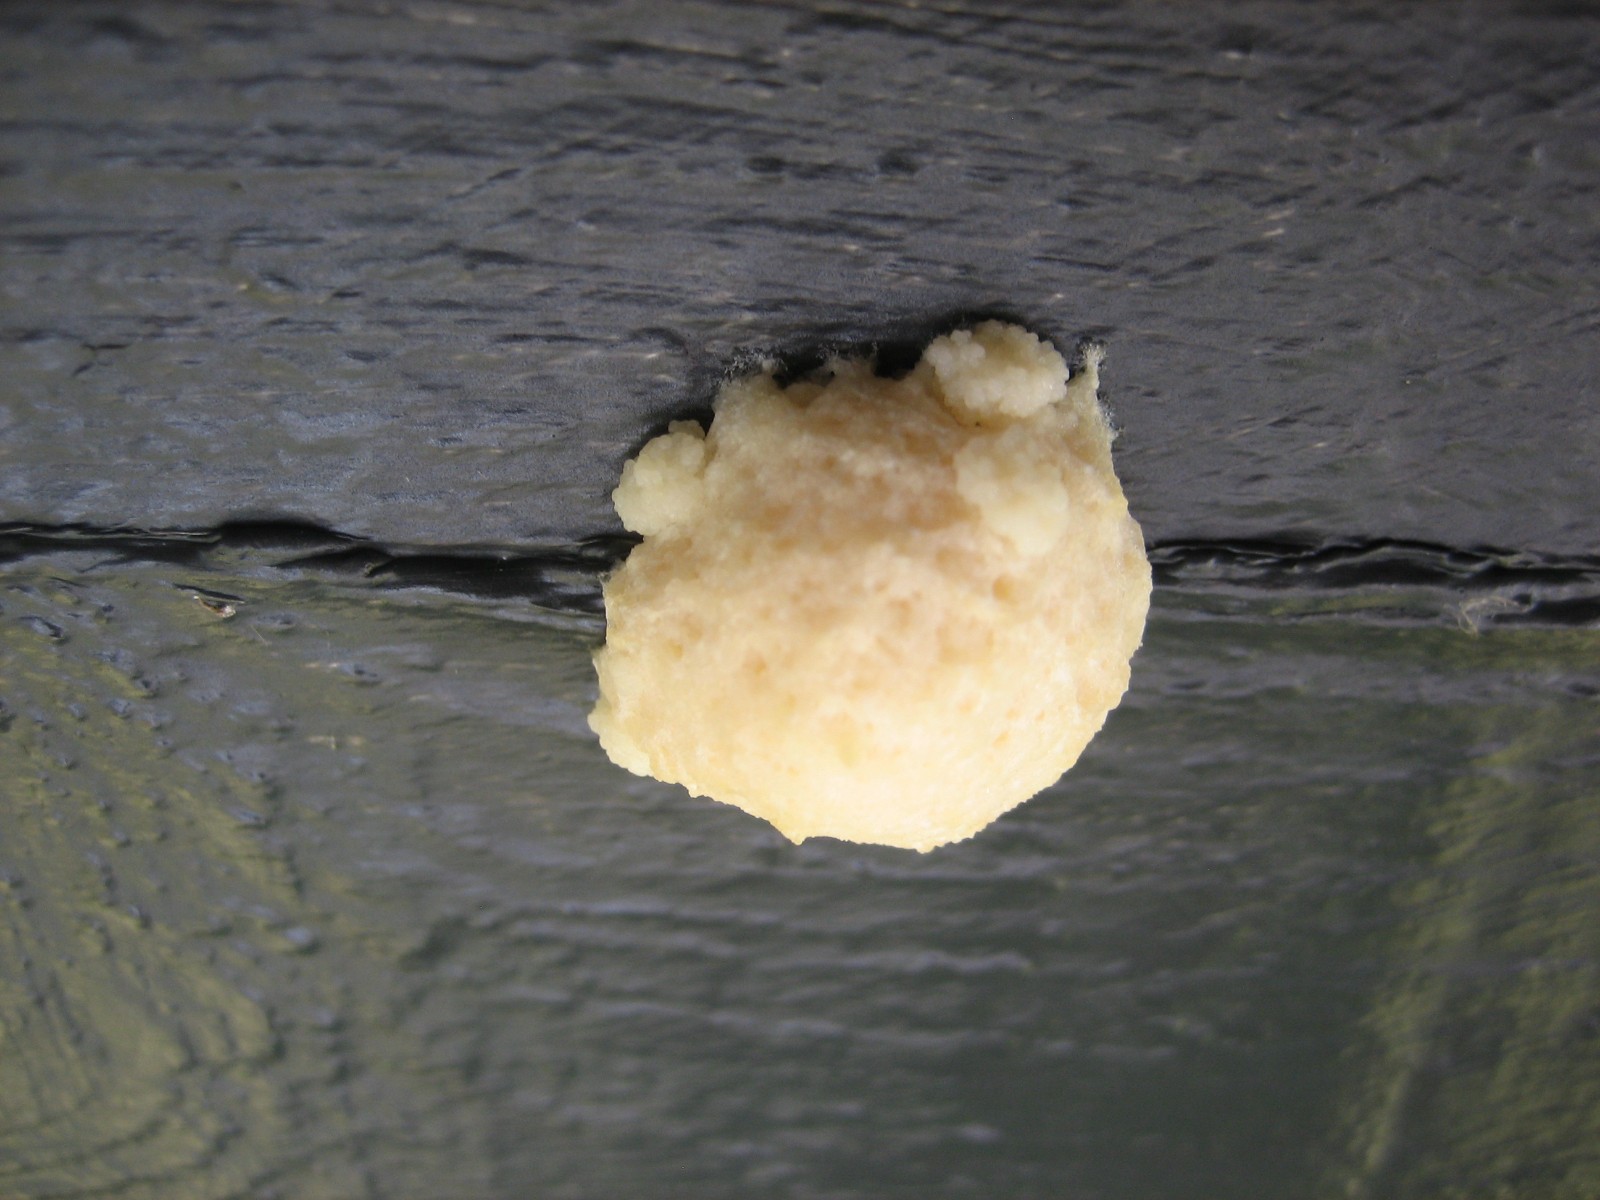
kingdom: Protozoa
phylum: Mycetozoa
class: Myxomycetes
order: Cribrariales
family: Tubiferaceae
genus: Reticularia
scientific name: Reticularia lycoperdon
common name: skinnende støvpude
